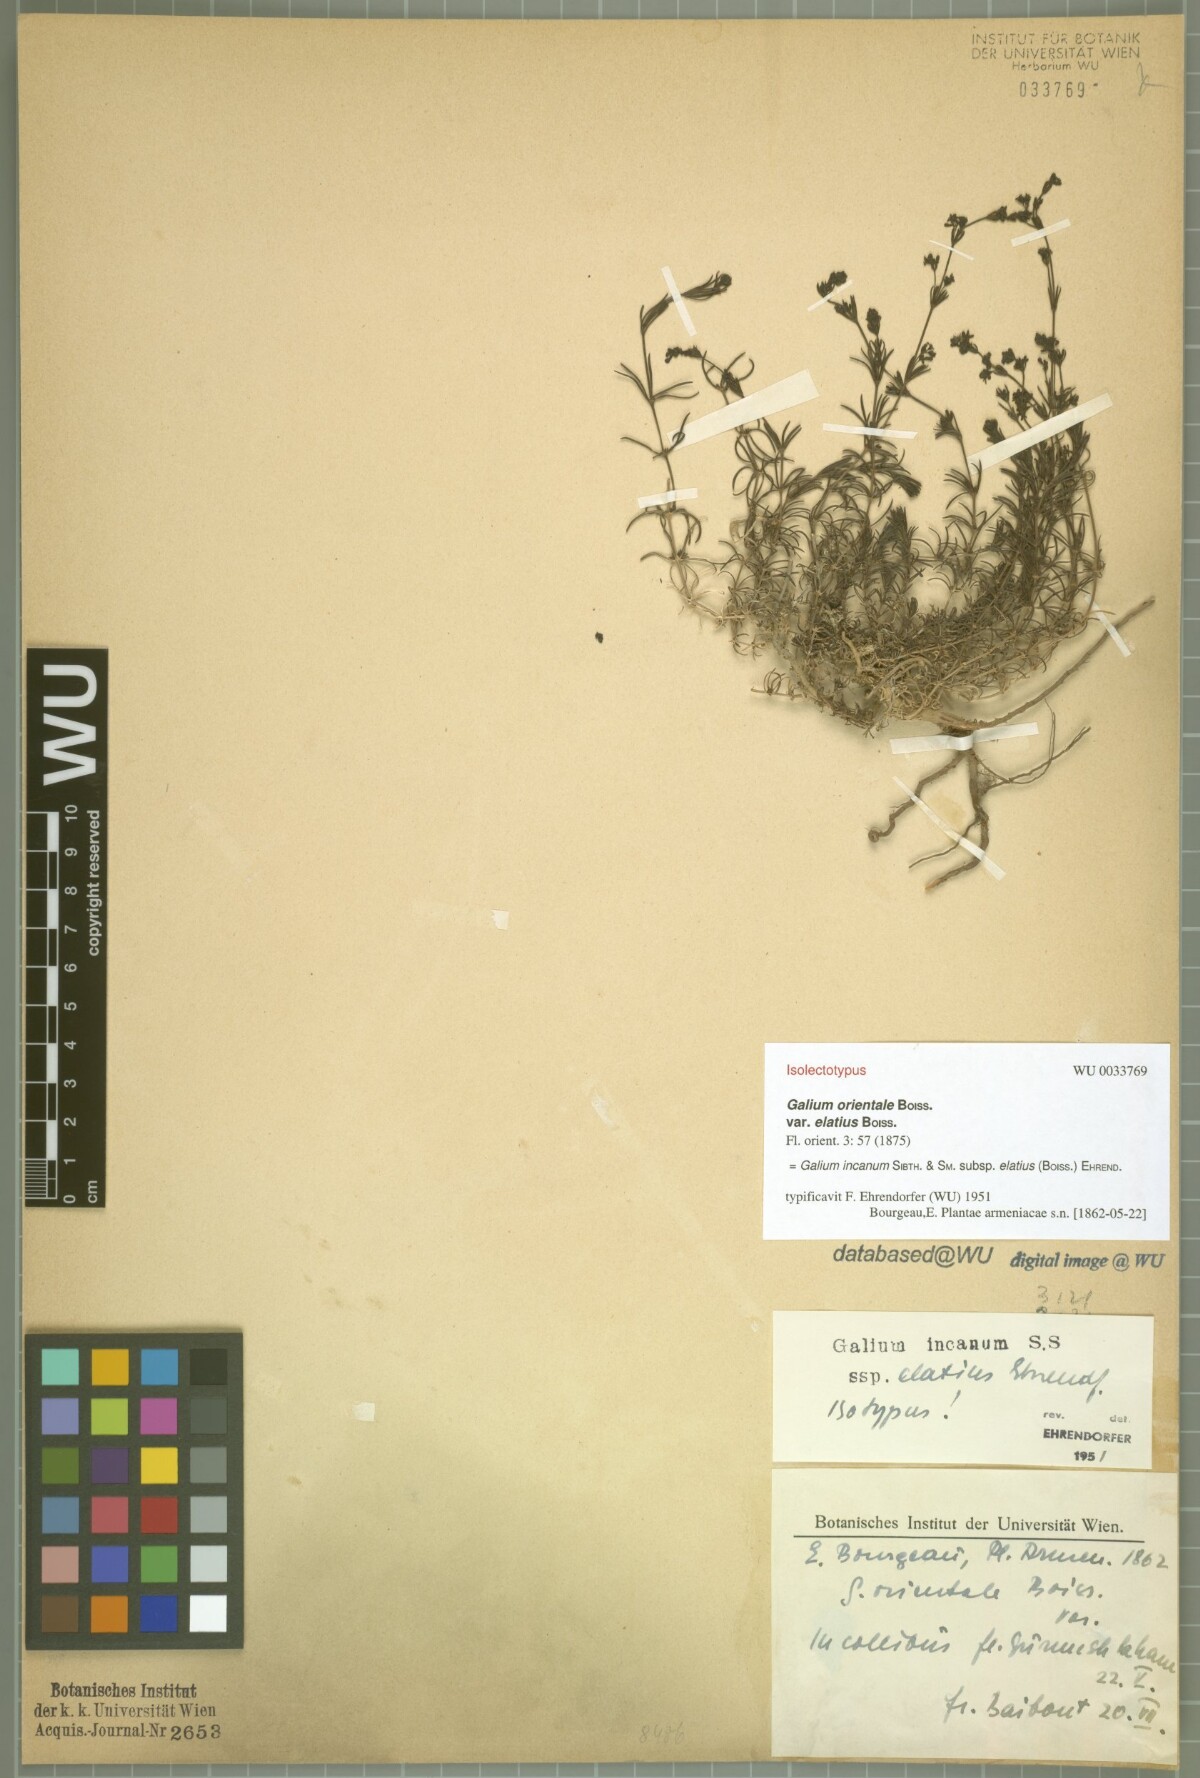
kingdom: Plantae
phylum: Tracheophyta
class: Magnoliopsida
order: Gentianales
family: Rubiaceae
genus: Galium
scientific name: Galium incanum
